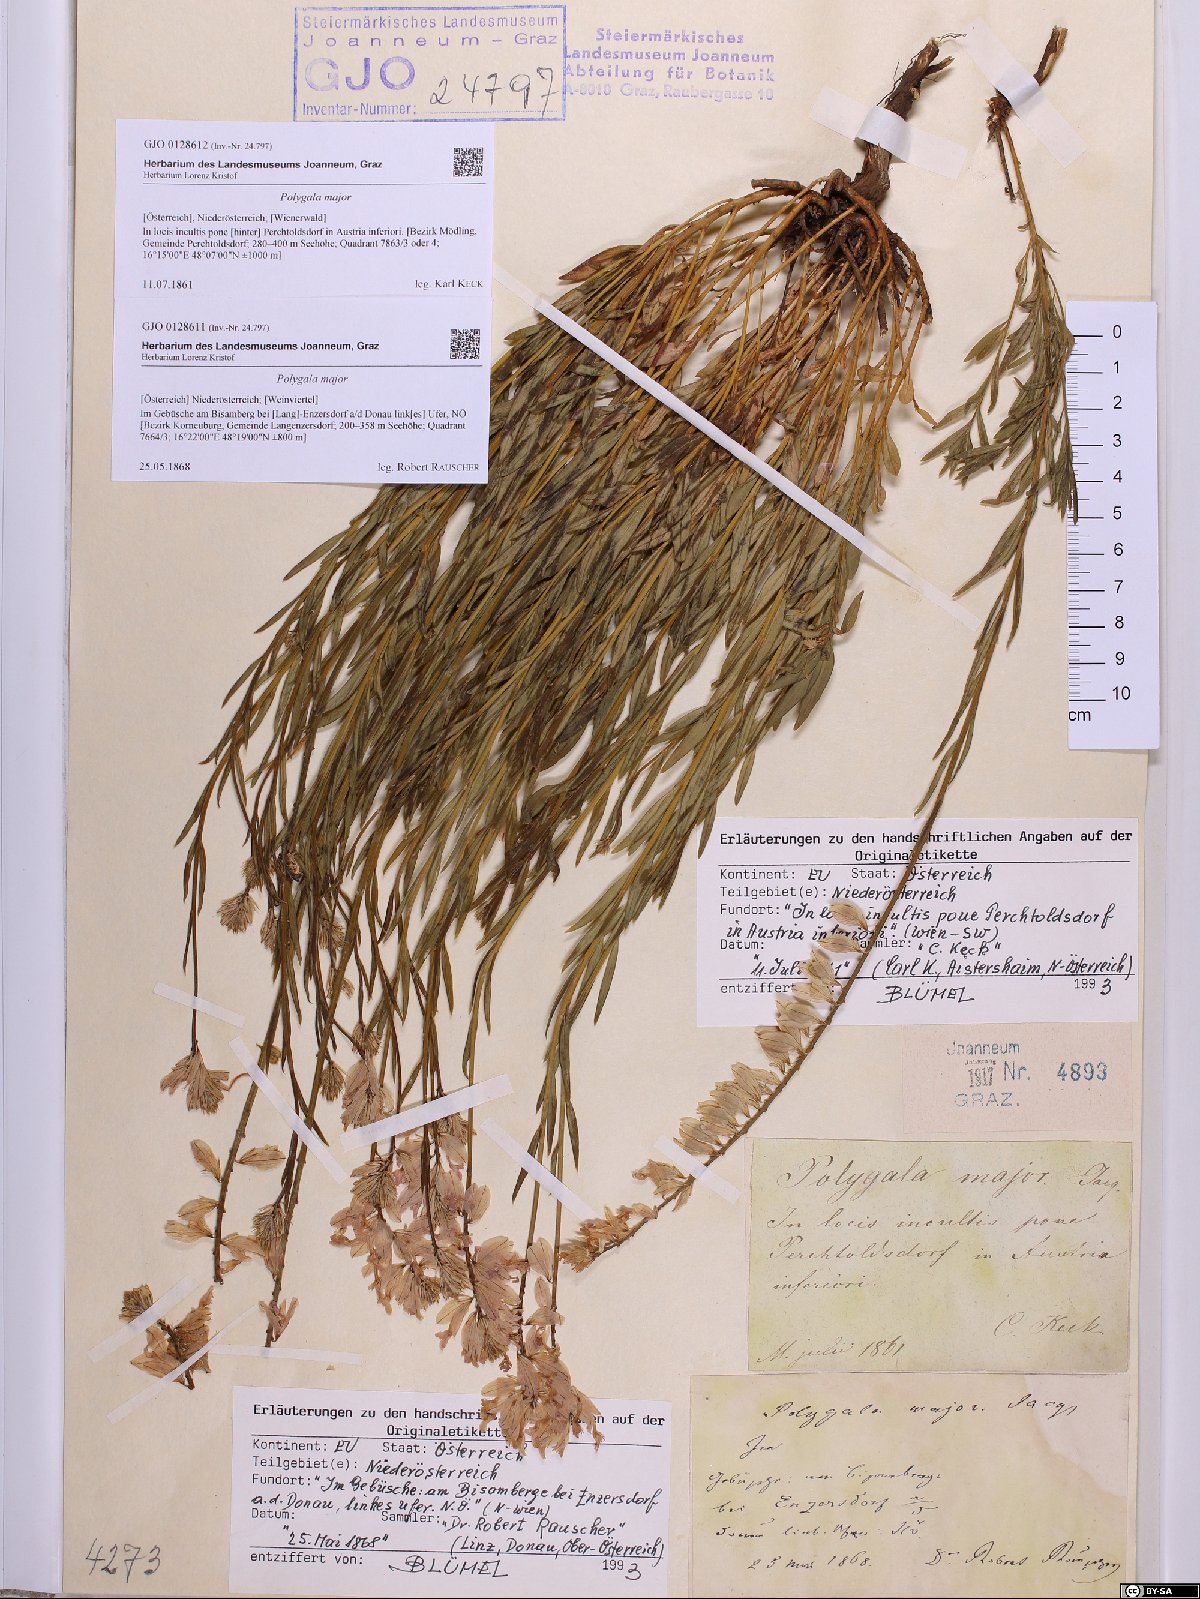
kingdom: Plantae
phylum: Tracheophyta
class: Magnoliopsida
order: Fabales
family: Polygalaceae
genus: Polygala
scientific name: Polygala major
